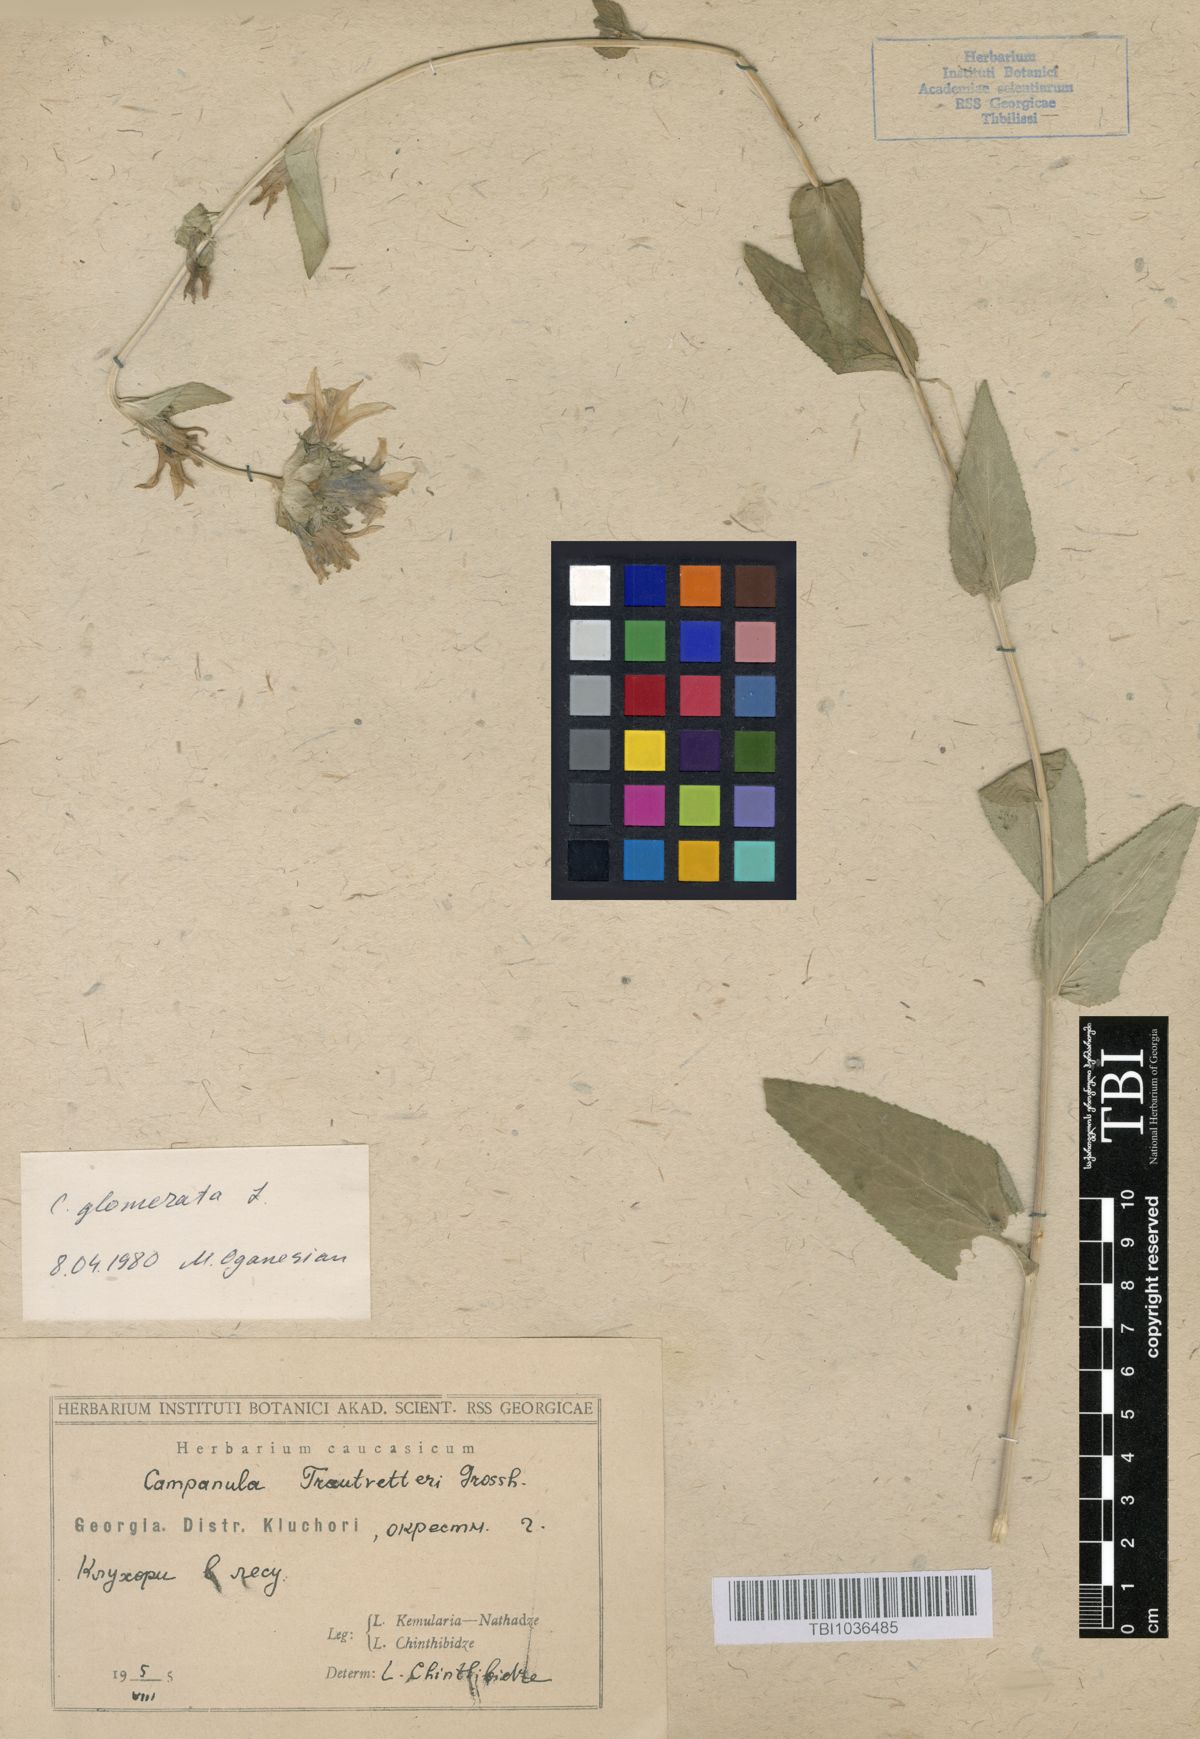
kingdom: Plantae
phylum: Tracheophyta
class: Magnoliopsida
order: Asterales
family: Campanulaceae
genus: Campanula
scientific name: Campanula glomerata
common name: Clustered bellflower
